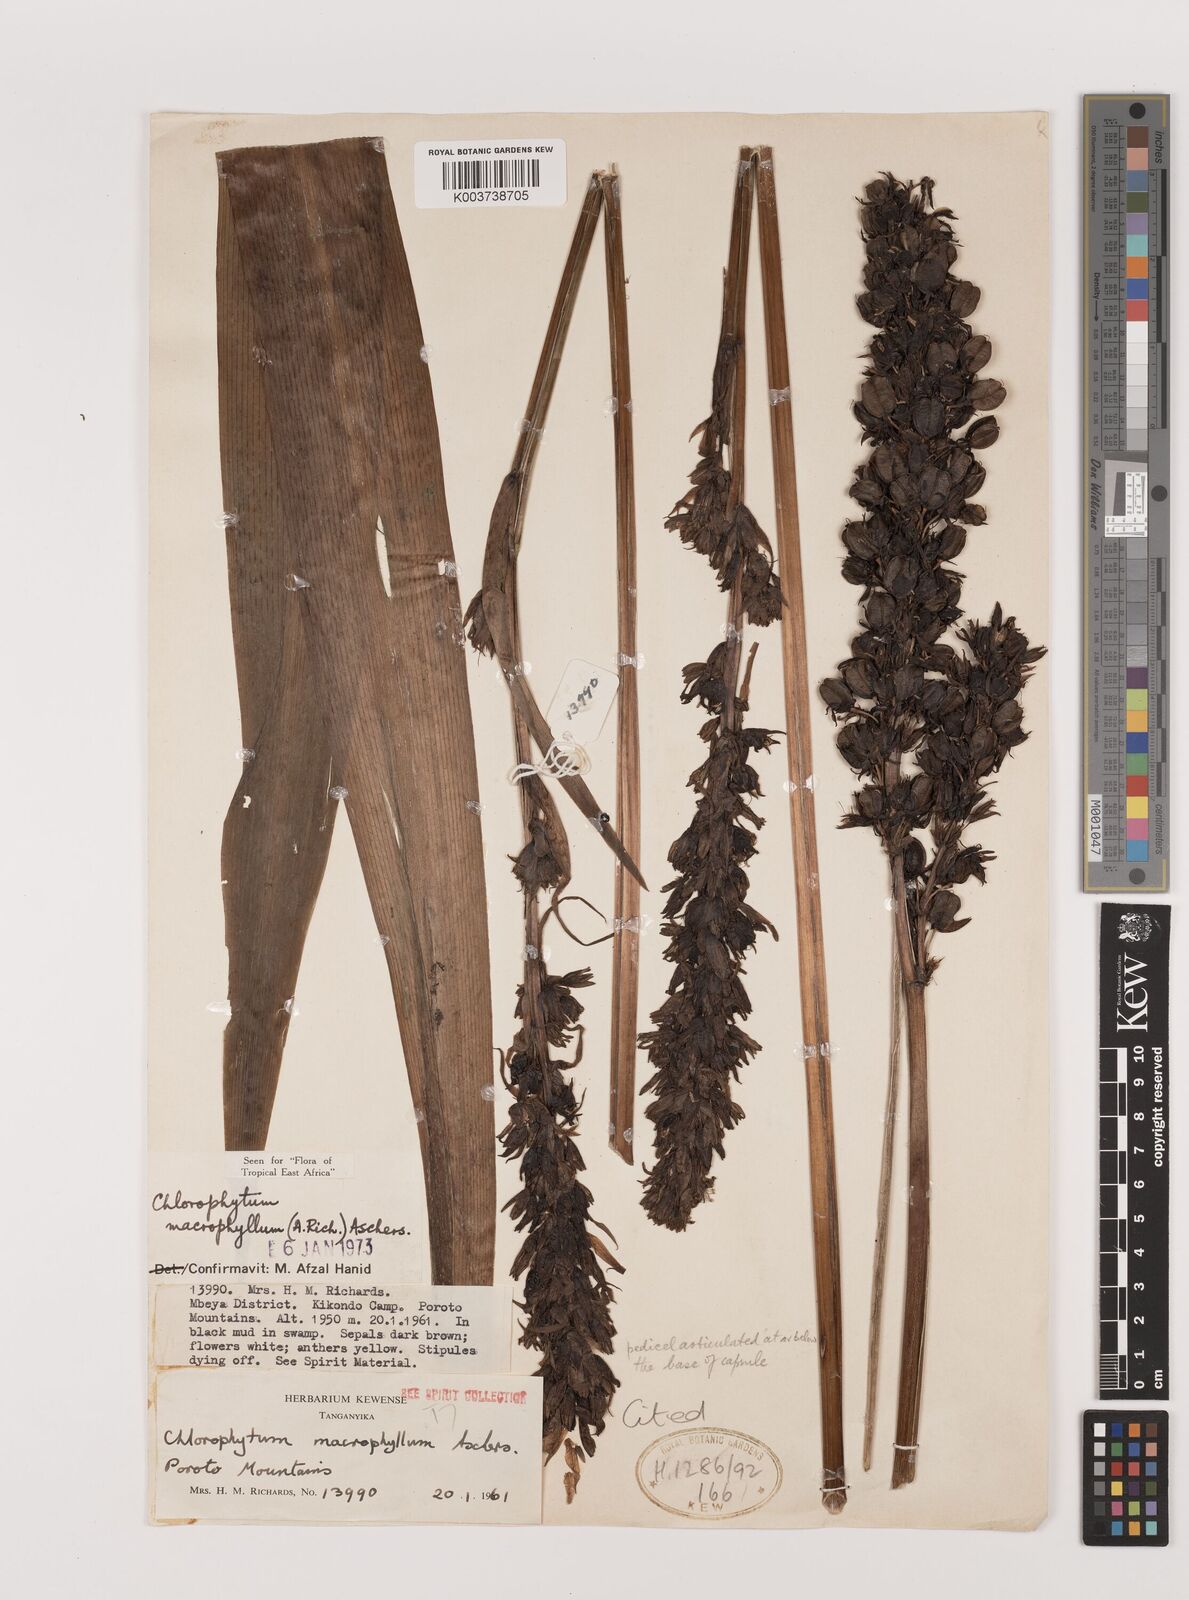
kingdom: Plantae
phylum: Tracheophyta
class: Liliopsida
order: Asparagales
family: Asparagaceae
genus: Chlorophytum
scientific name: Chlorophytum macrophyllum
